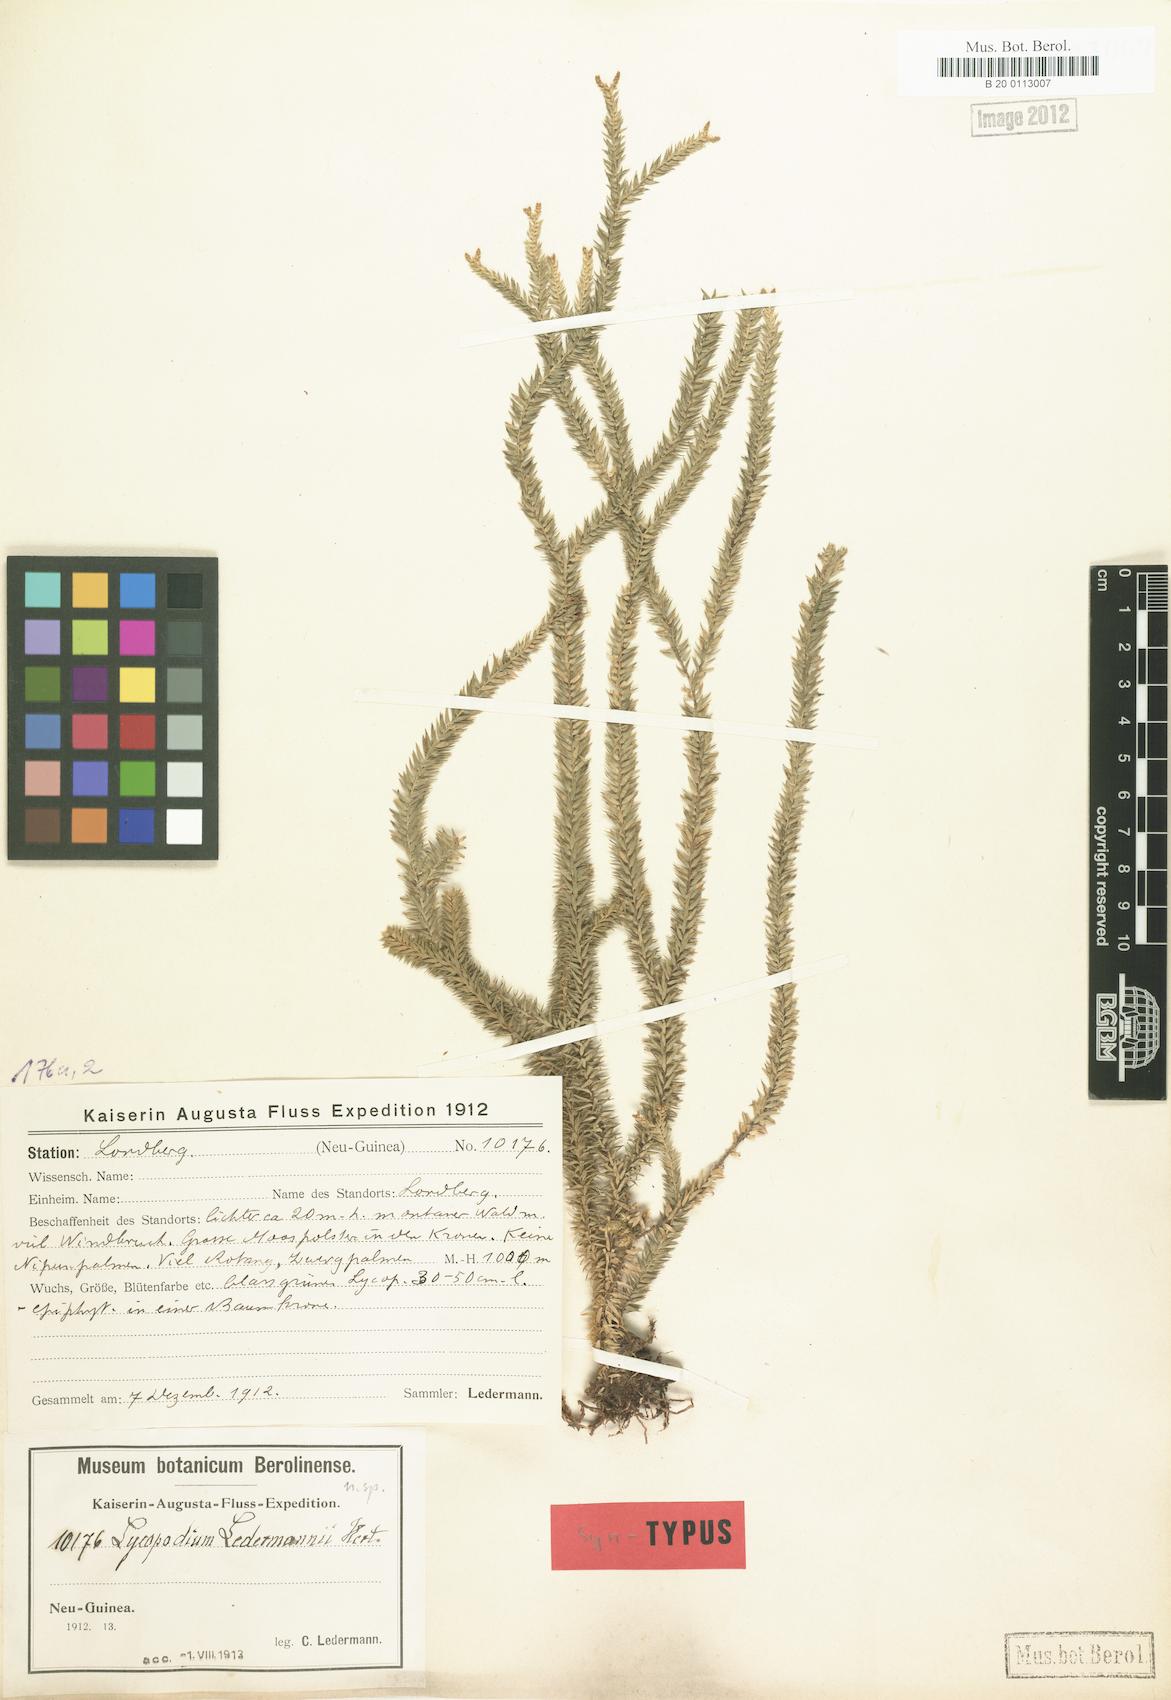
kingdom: Plantae
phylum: Tracheophyta
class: Lycopodiopsida
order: Lycopodiales
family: Lycopodiaceae
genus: Phlegmariurus
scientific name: Phlegmariurus ledermannii
